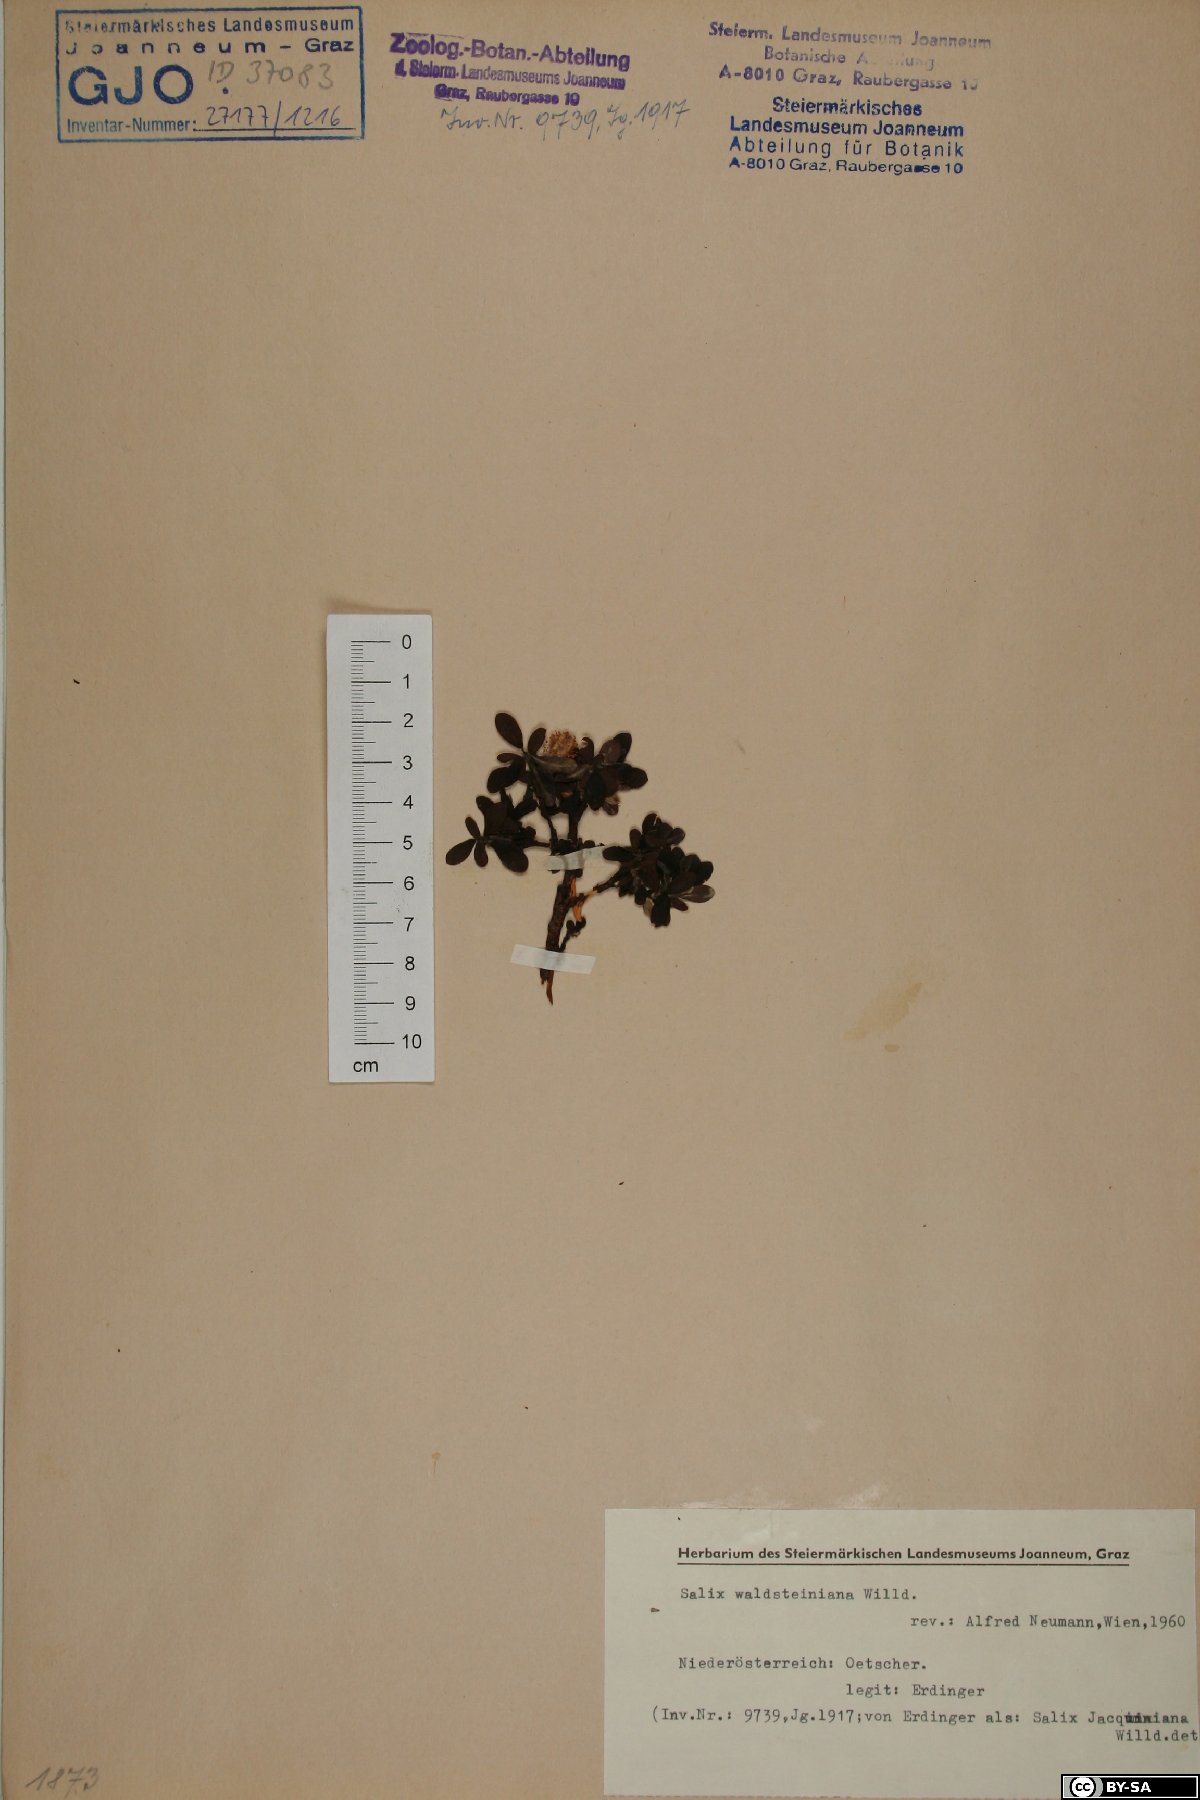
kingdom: Plantae
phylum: Tracheophyta
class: Magnoliopsida
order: Malpighiales
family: Salicaceae
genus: Salix
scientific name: Salix waldsteiniana
